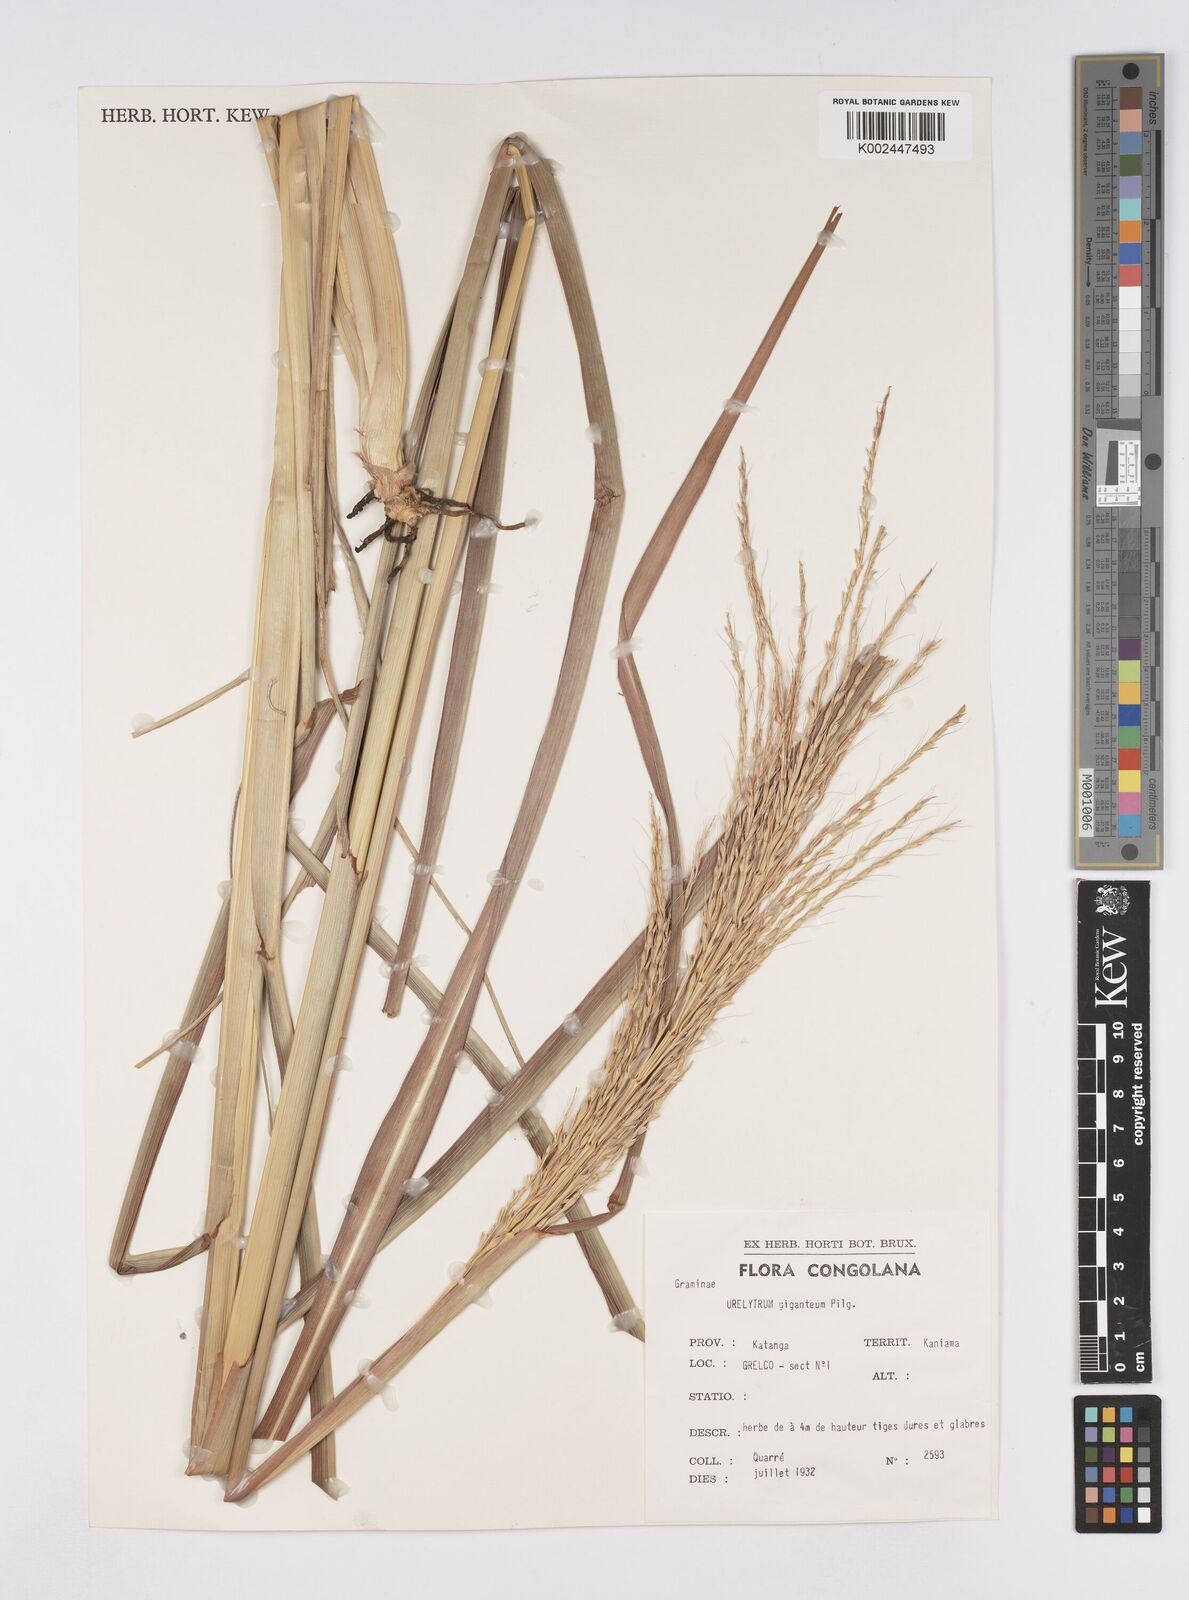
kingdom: Plantae
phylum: Tracheophyta
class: Liliopsida
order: Poales
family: Poaceae
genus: Urelytrum
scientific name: Urelytrum giganteum
